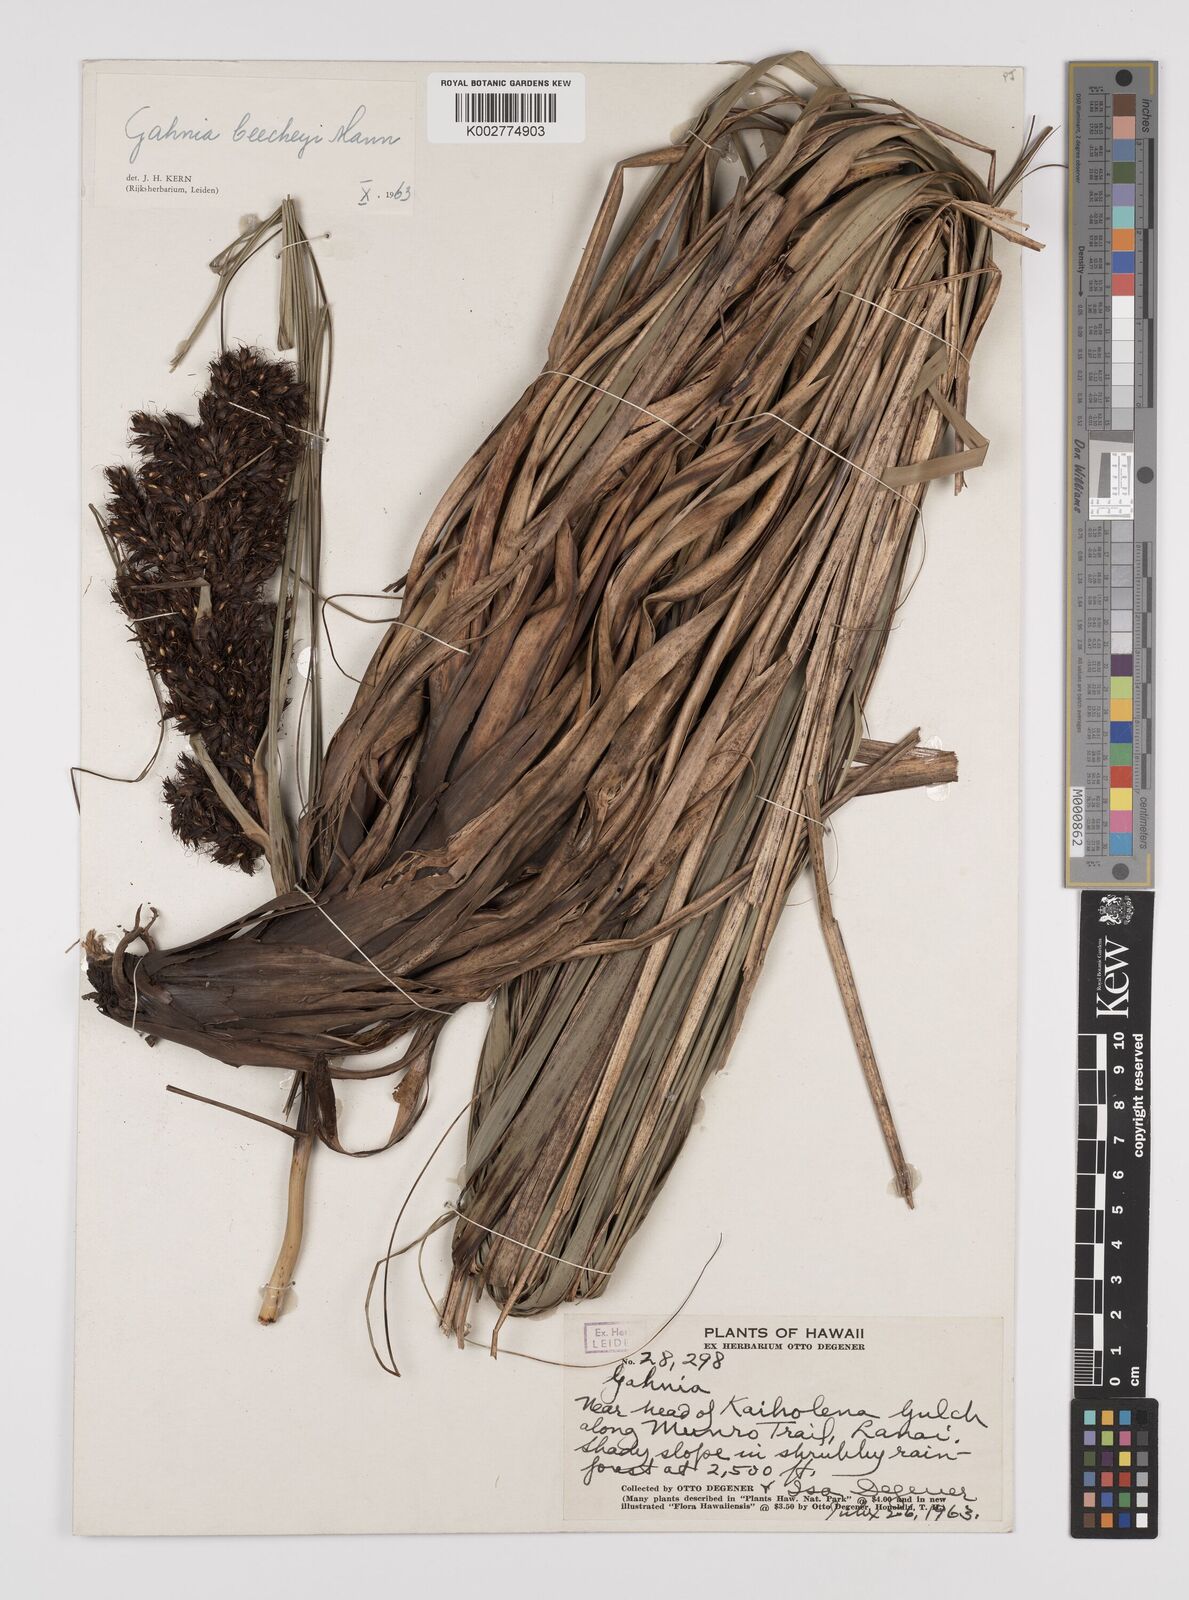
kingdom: Plantae
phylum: Tracheophyta
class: Liliopsida
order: Poales
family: Cyperaceae
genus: Gahnia
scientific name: Gahnia beecheyi
